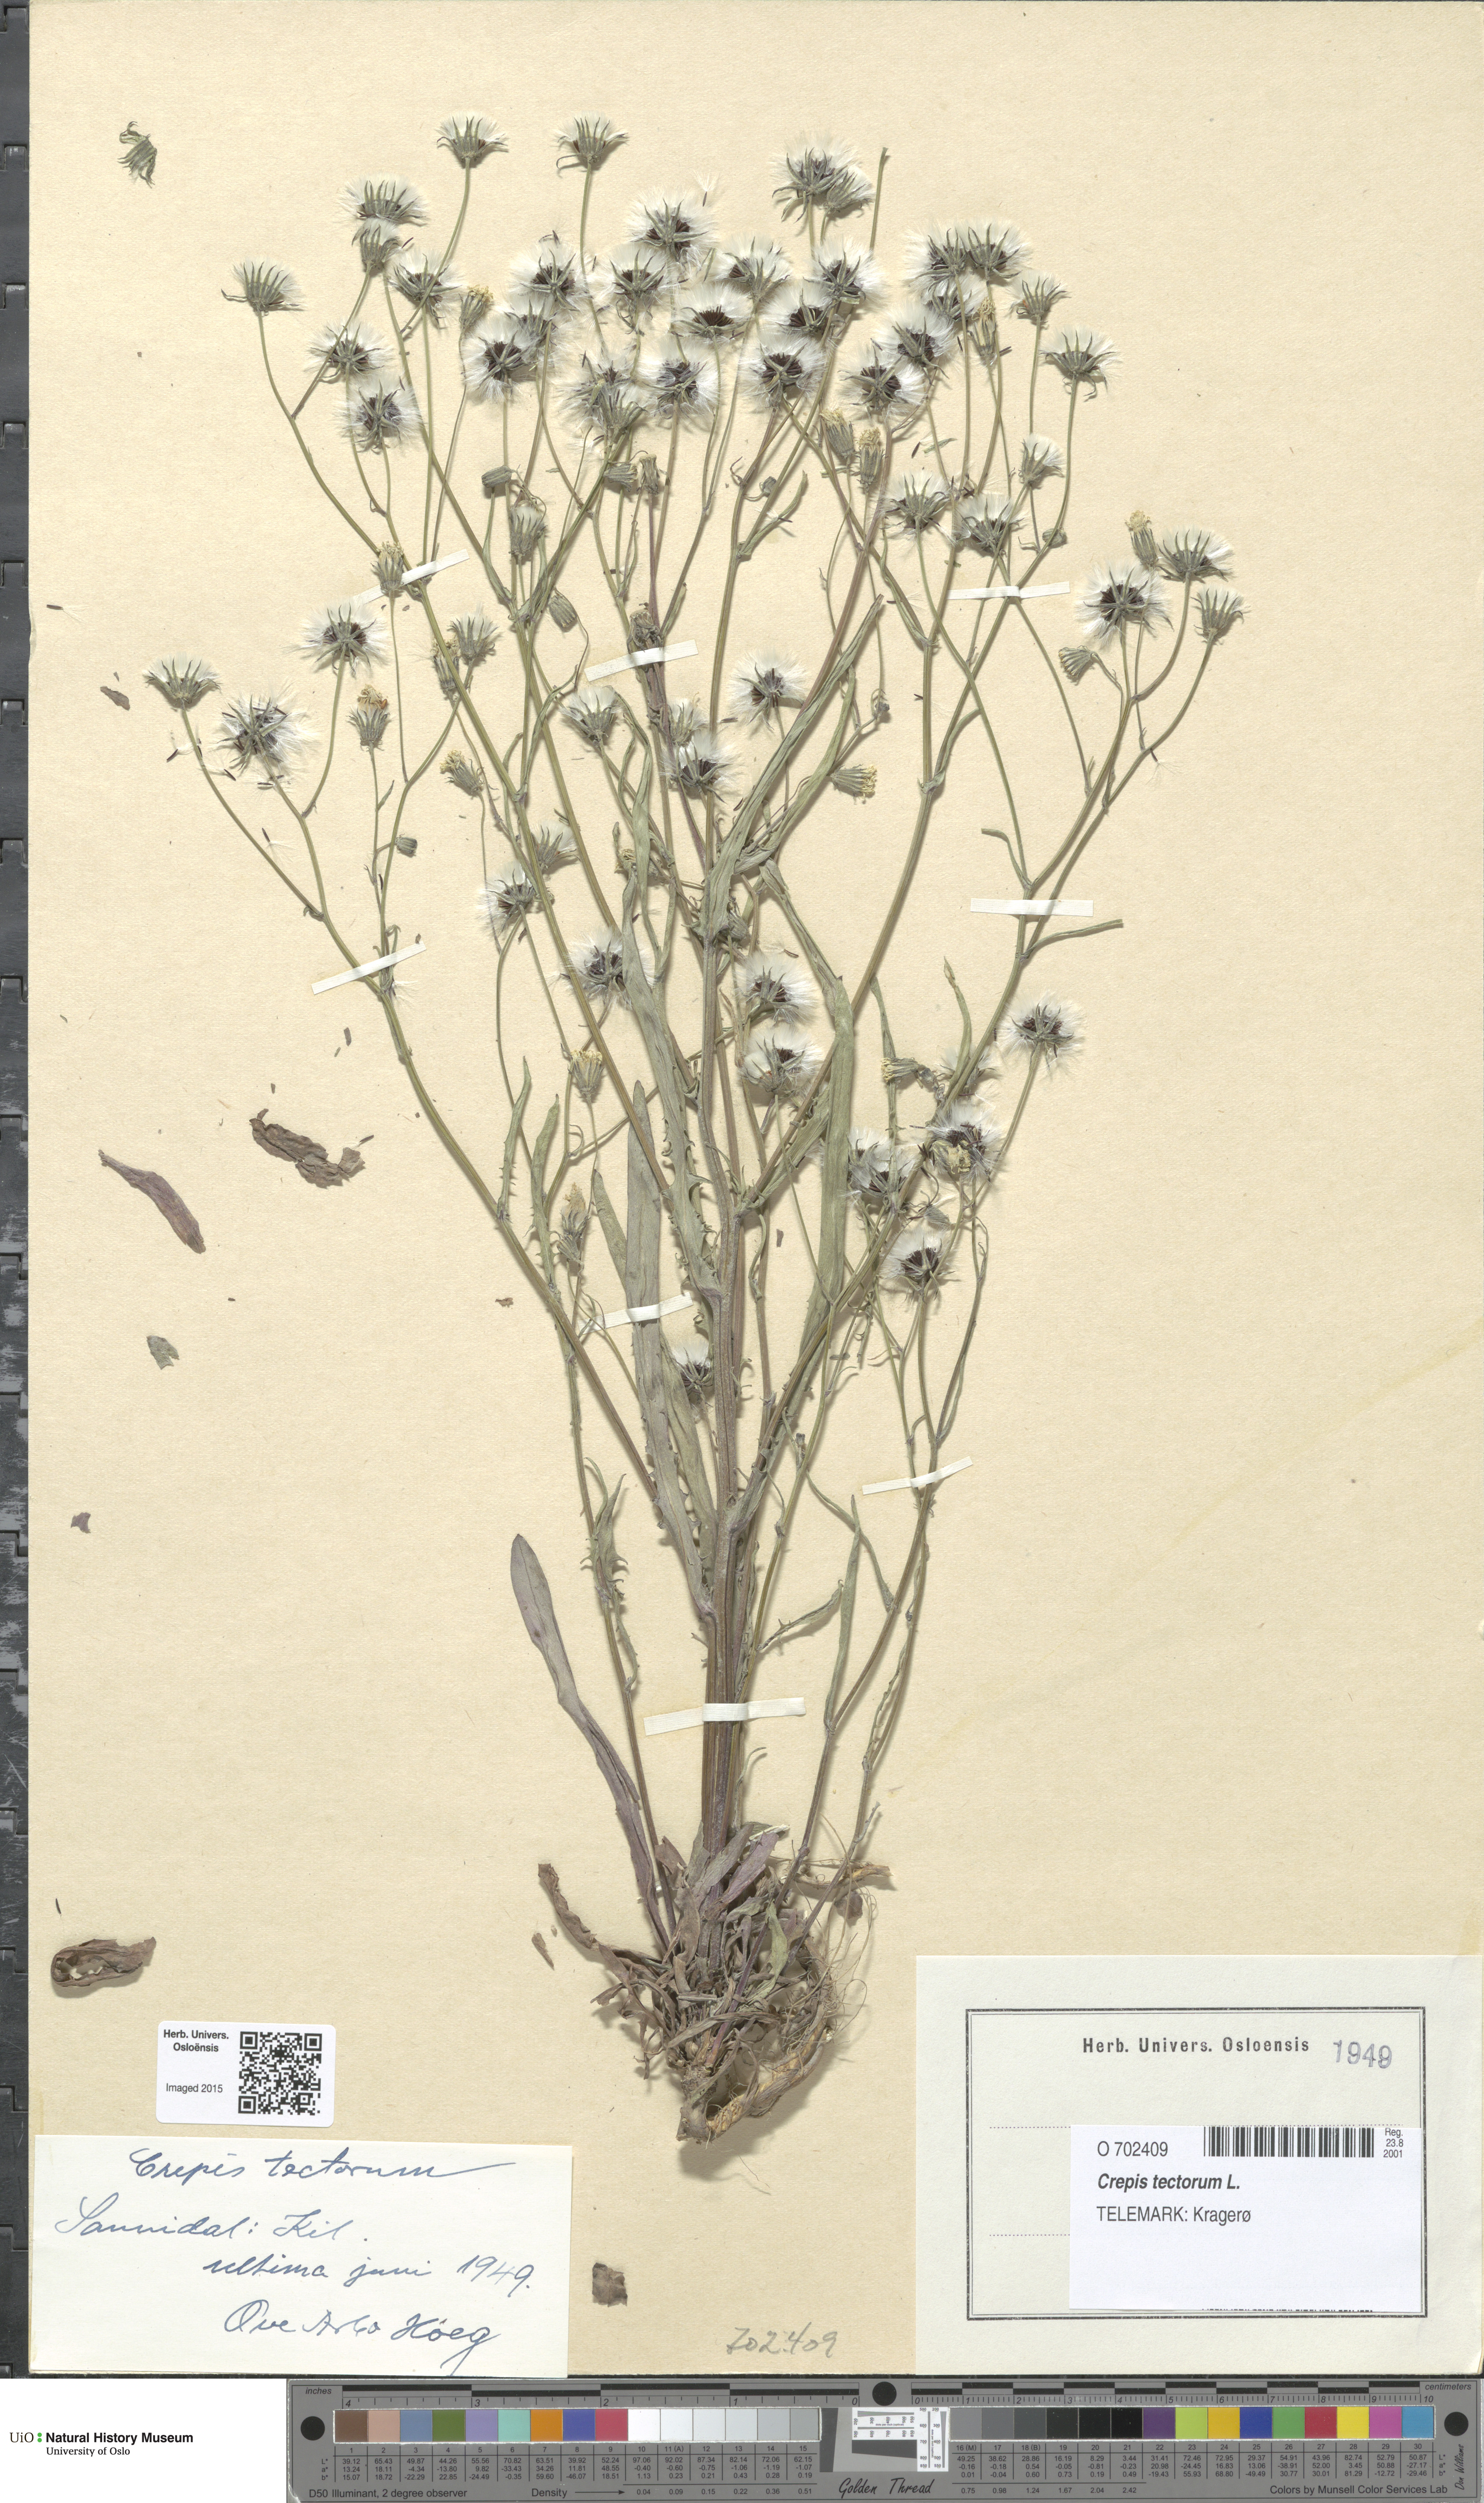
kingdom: Plantae
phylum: Tracheophyta
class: Magnoliopsida
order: Asterales
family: Asteraceae
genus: Crepis
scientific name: Crepis tectorum
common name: Narrow-leaved hawk's-beard
